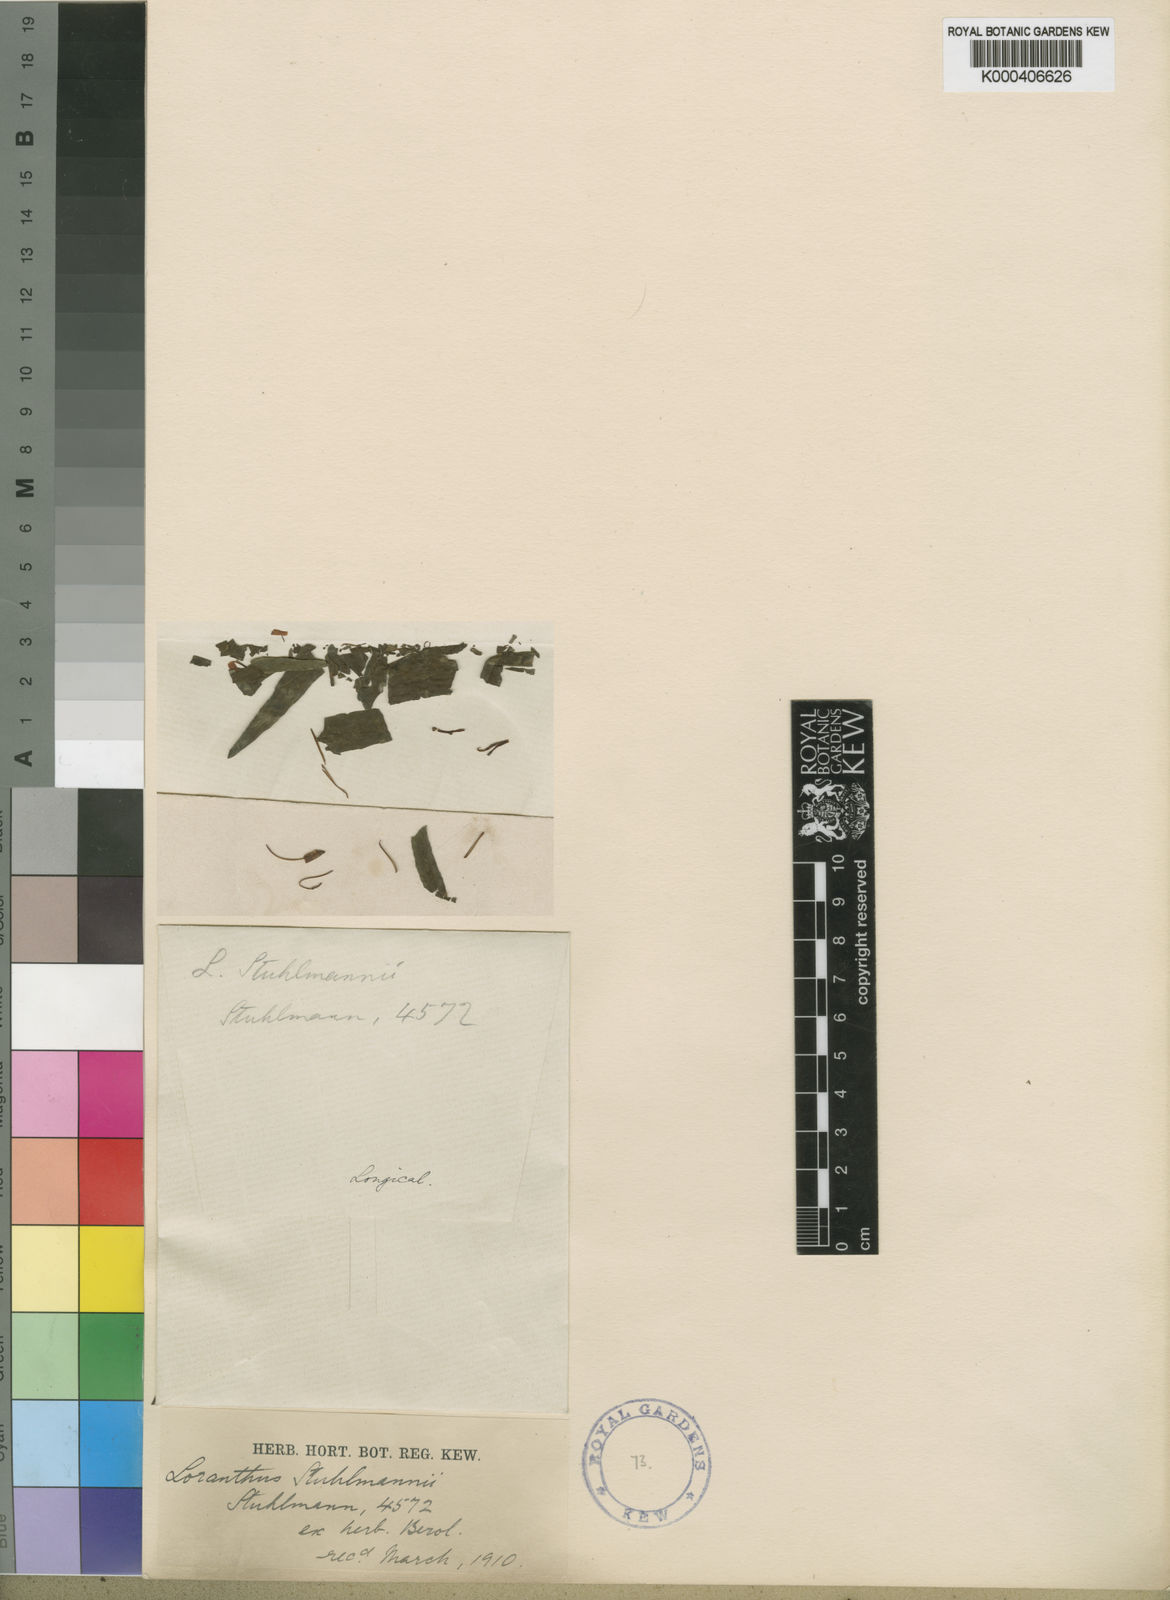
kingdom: Plantae
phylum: Tracheophyta
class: Magnoliopsida
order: Santalales
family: Loranthaceae
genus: Oncocalyx
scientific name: Oncocalyx fischeri
